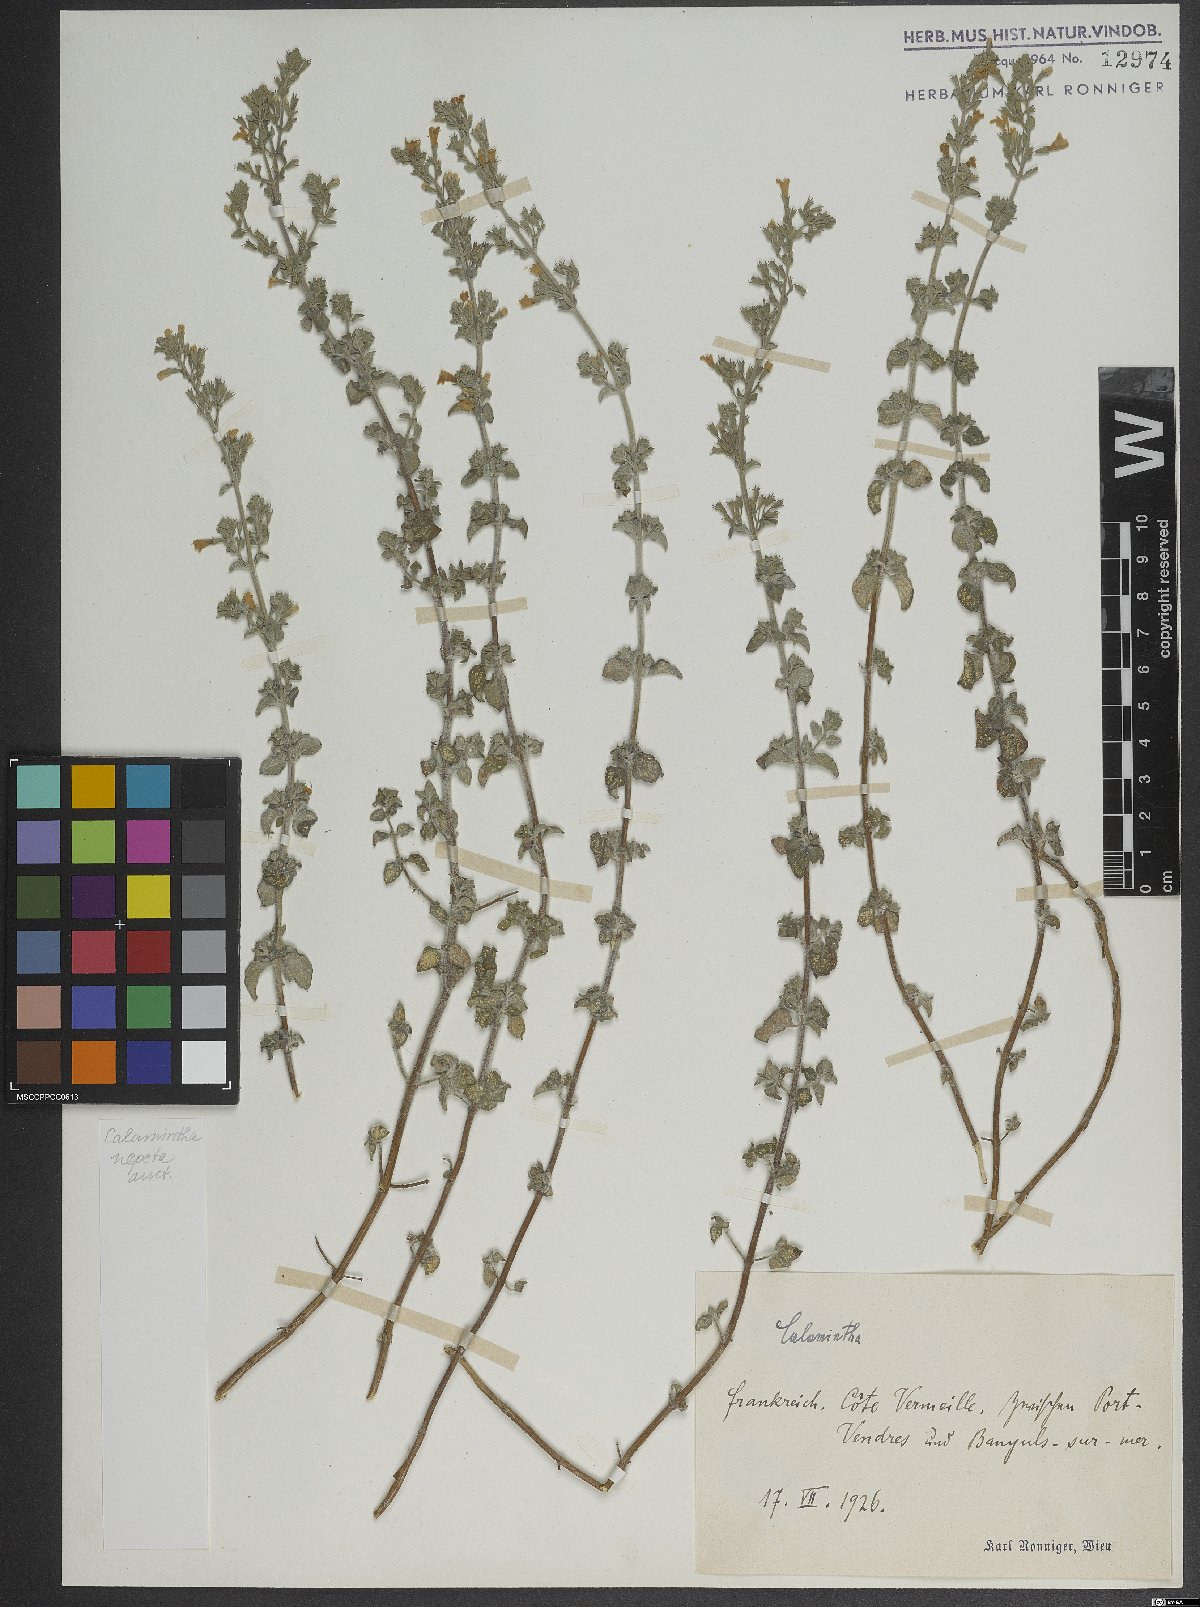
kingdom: Plantae
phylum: Tracheophyta
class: Magnoliopsida
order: Lamiales
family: Lamiaceae
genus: Clinopodium
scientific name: Clinopodium nepeta
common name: Lesser calamint
